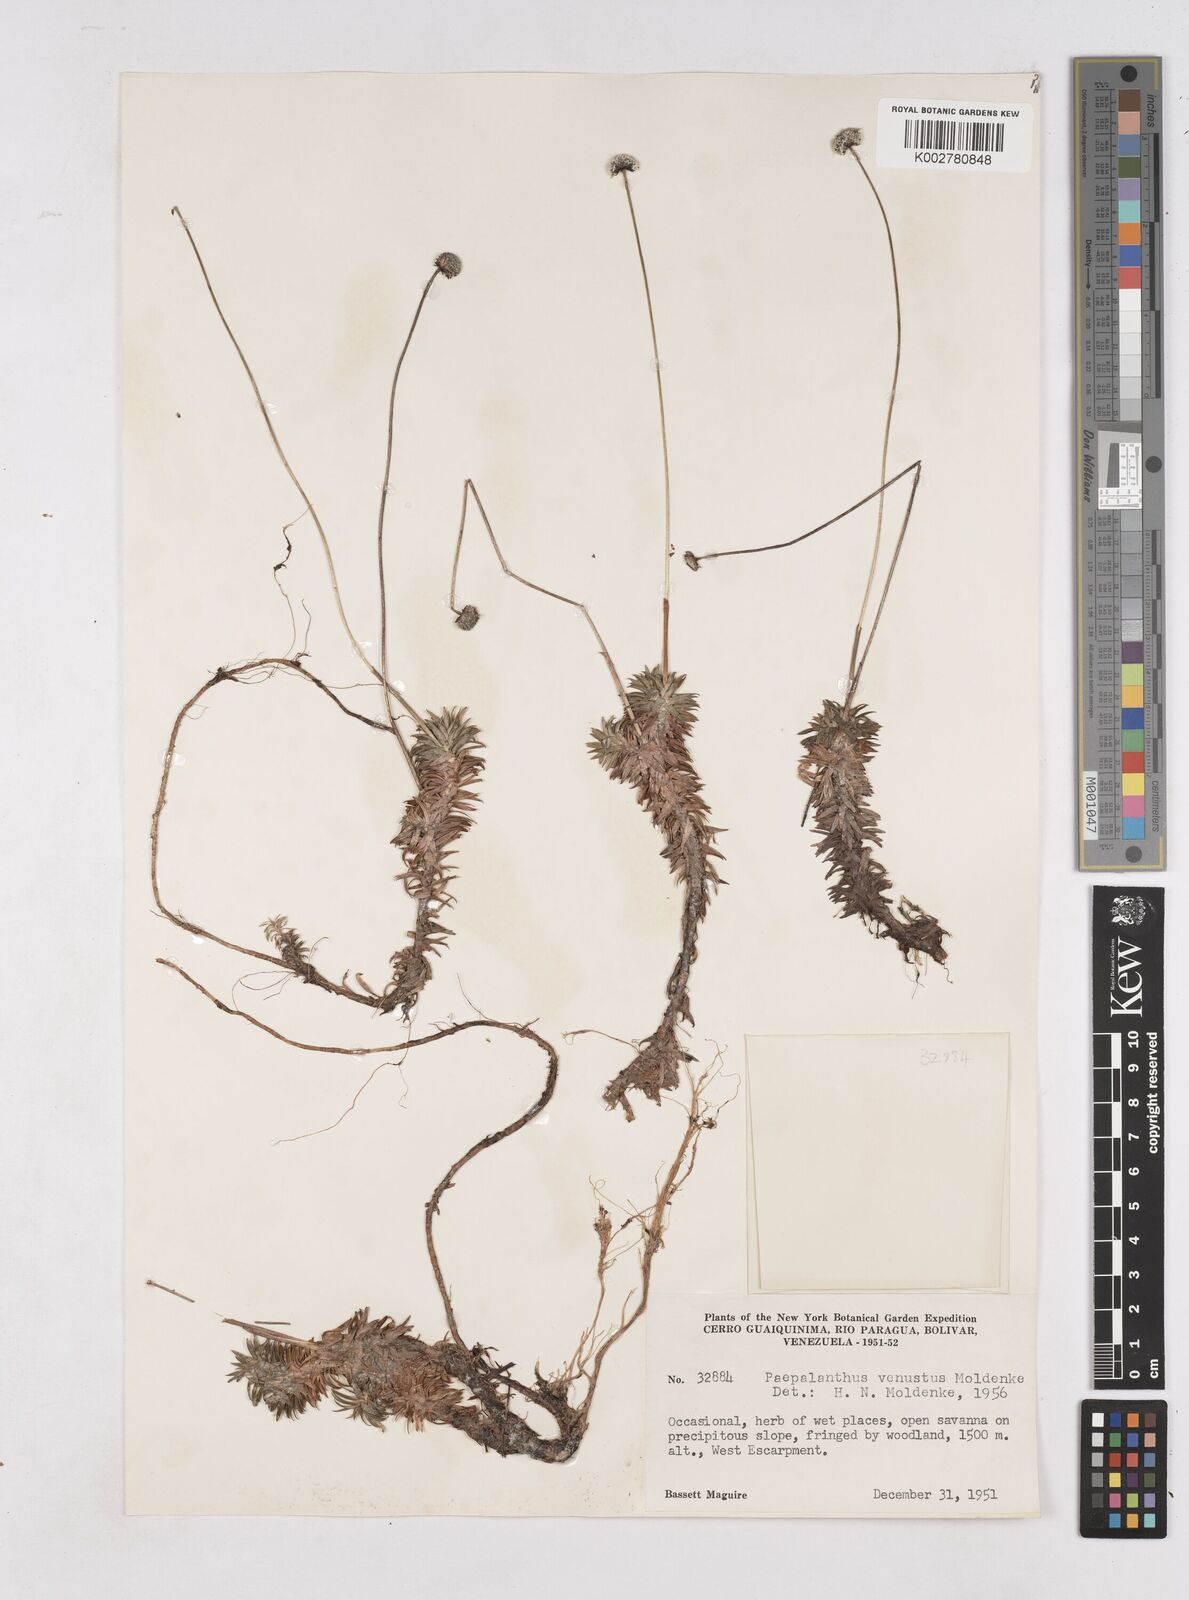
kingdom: Plantae
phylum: Tracheophyta
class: Liliopsida
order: Poales
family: Eriocaulaceae
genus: Paepalanthus
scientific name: Paepalanthus venustus
